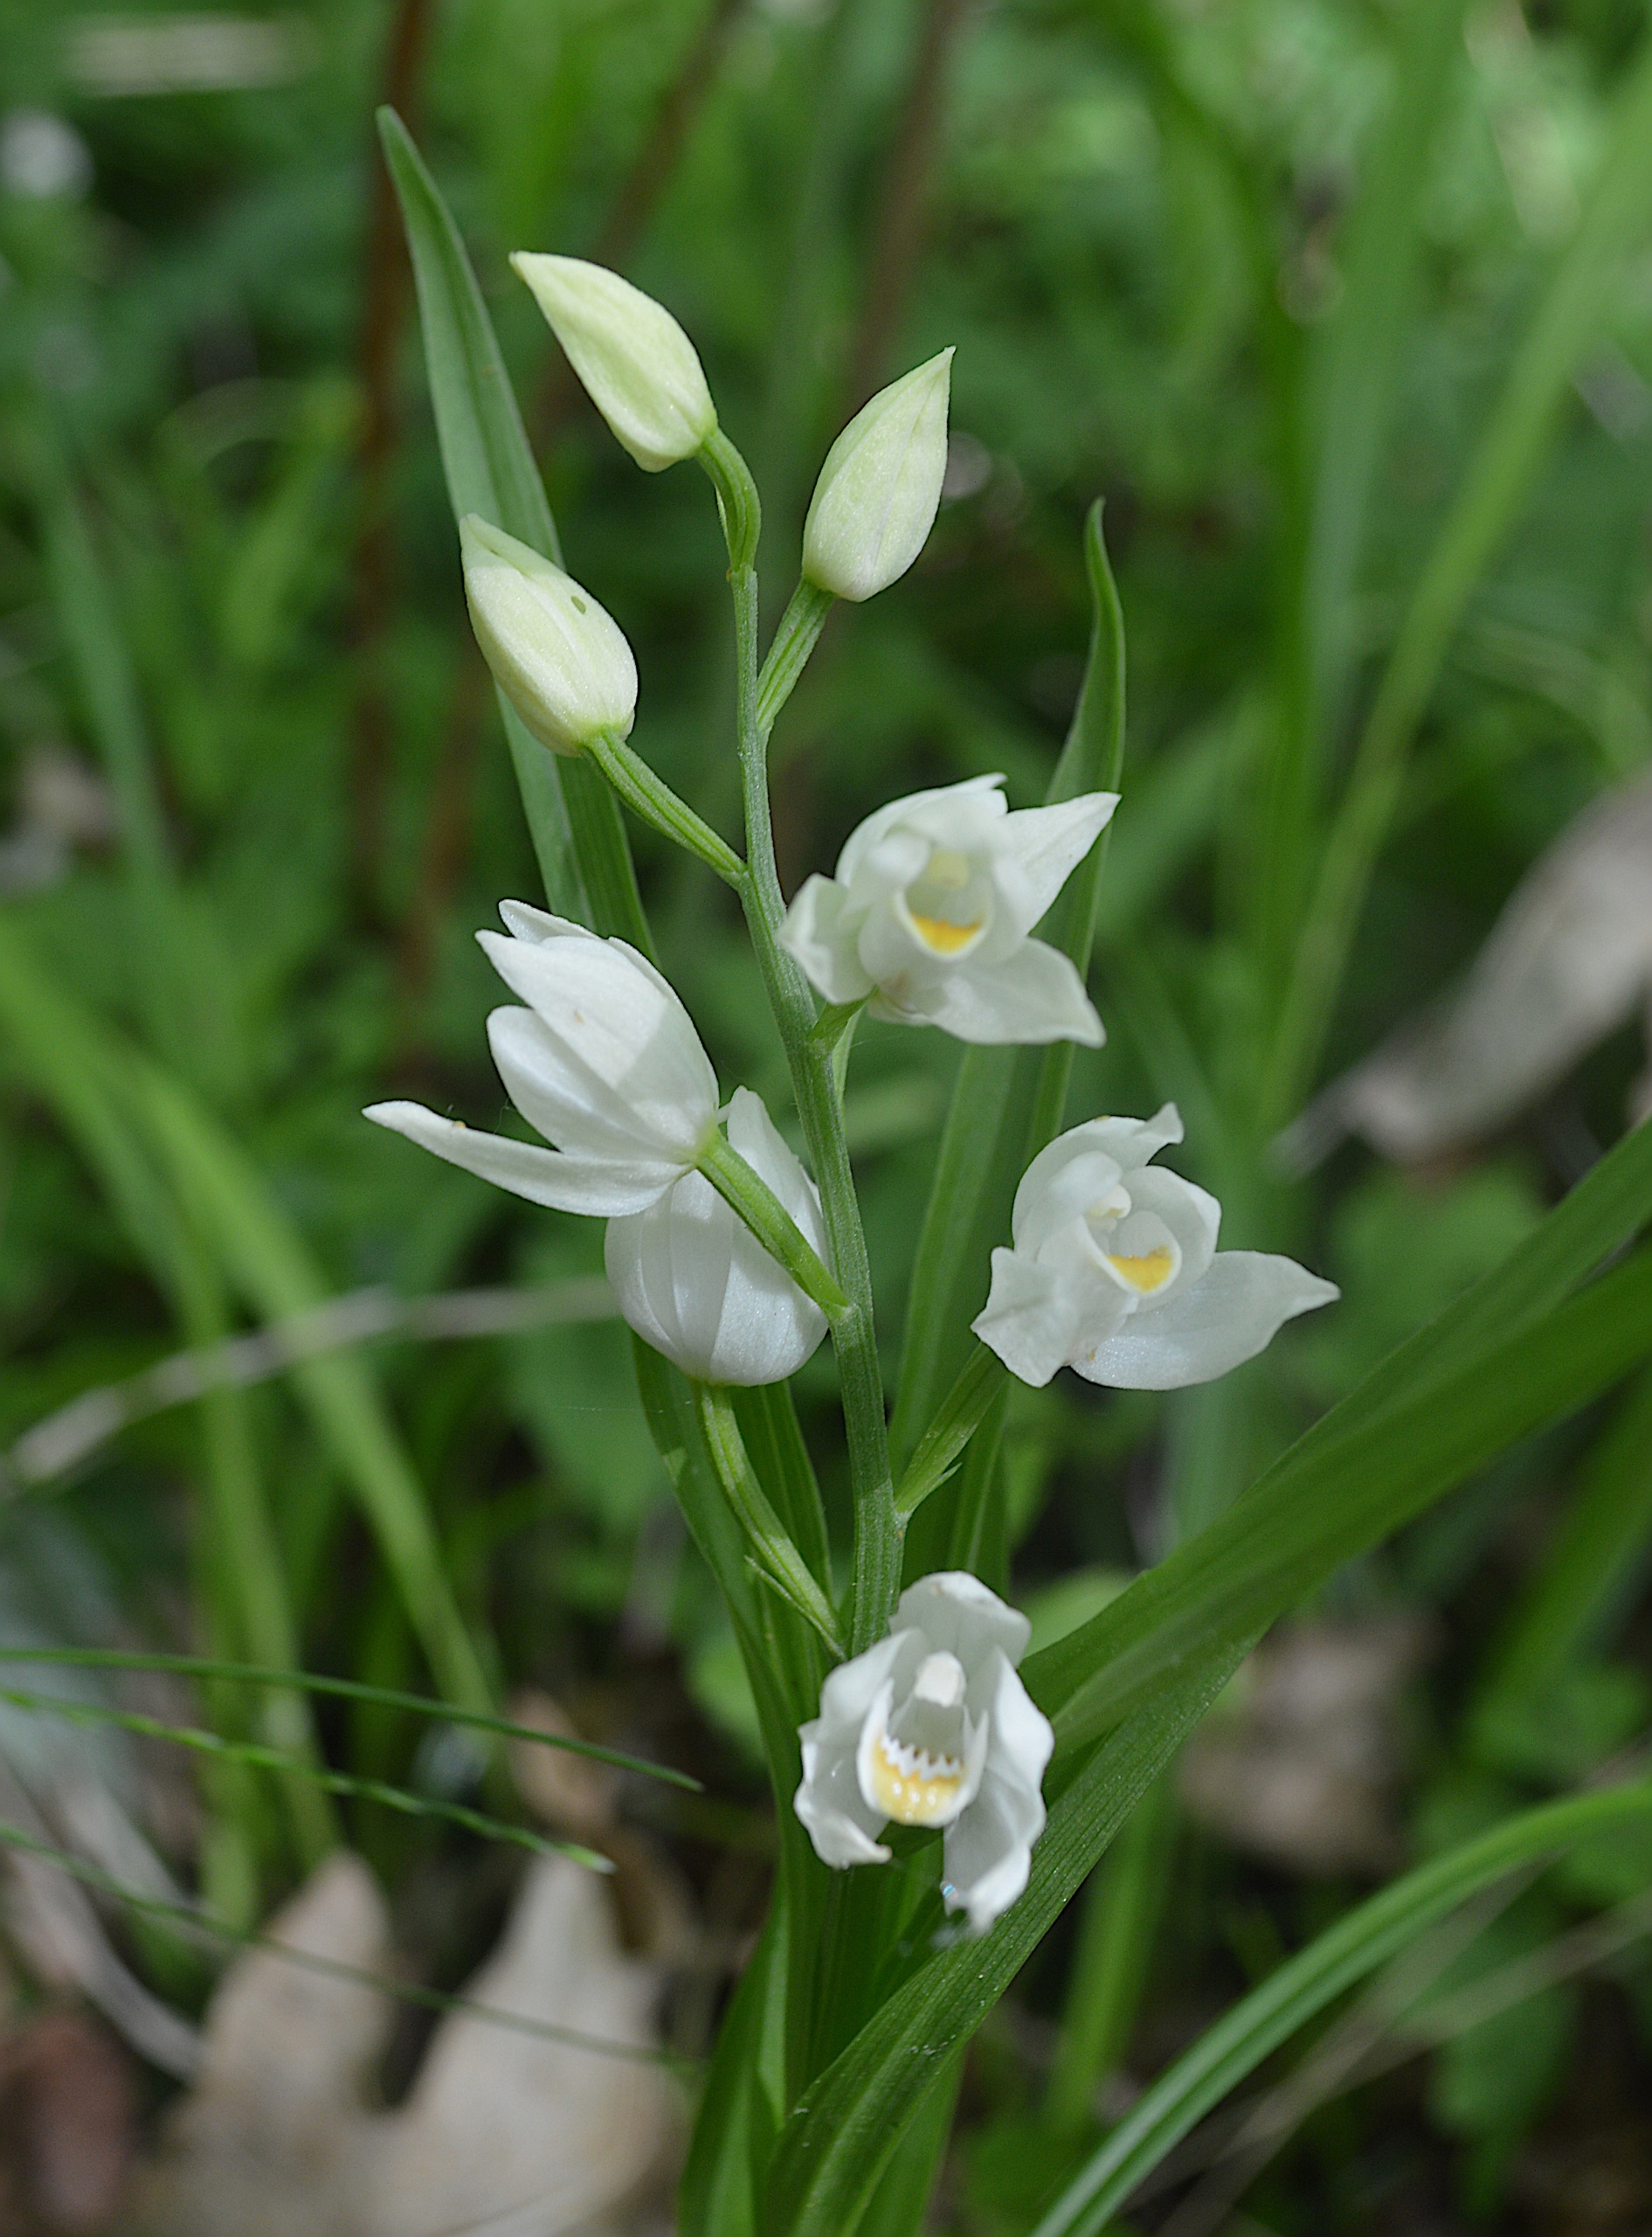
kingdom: Plantae
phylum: Tracheophyta
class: Liliopsida
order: Asparagales
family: Orchidaceae
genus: Cephalanthera
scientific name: Cephalanthera longifolia
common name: Sværd-skovlilje
